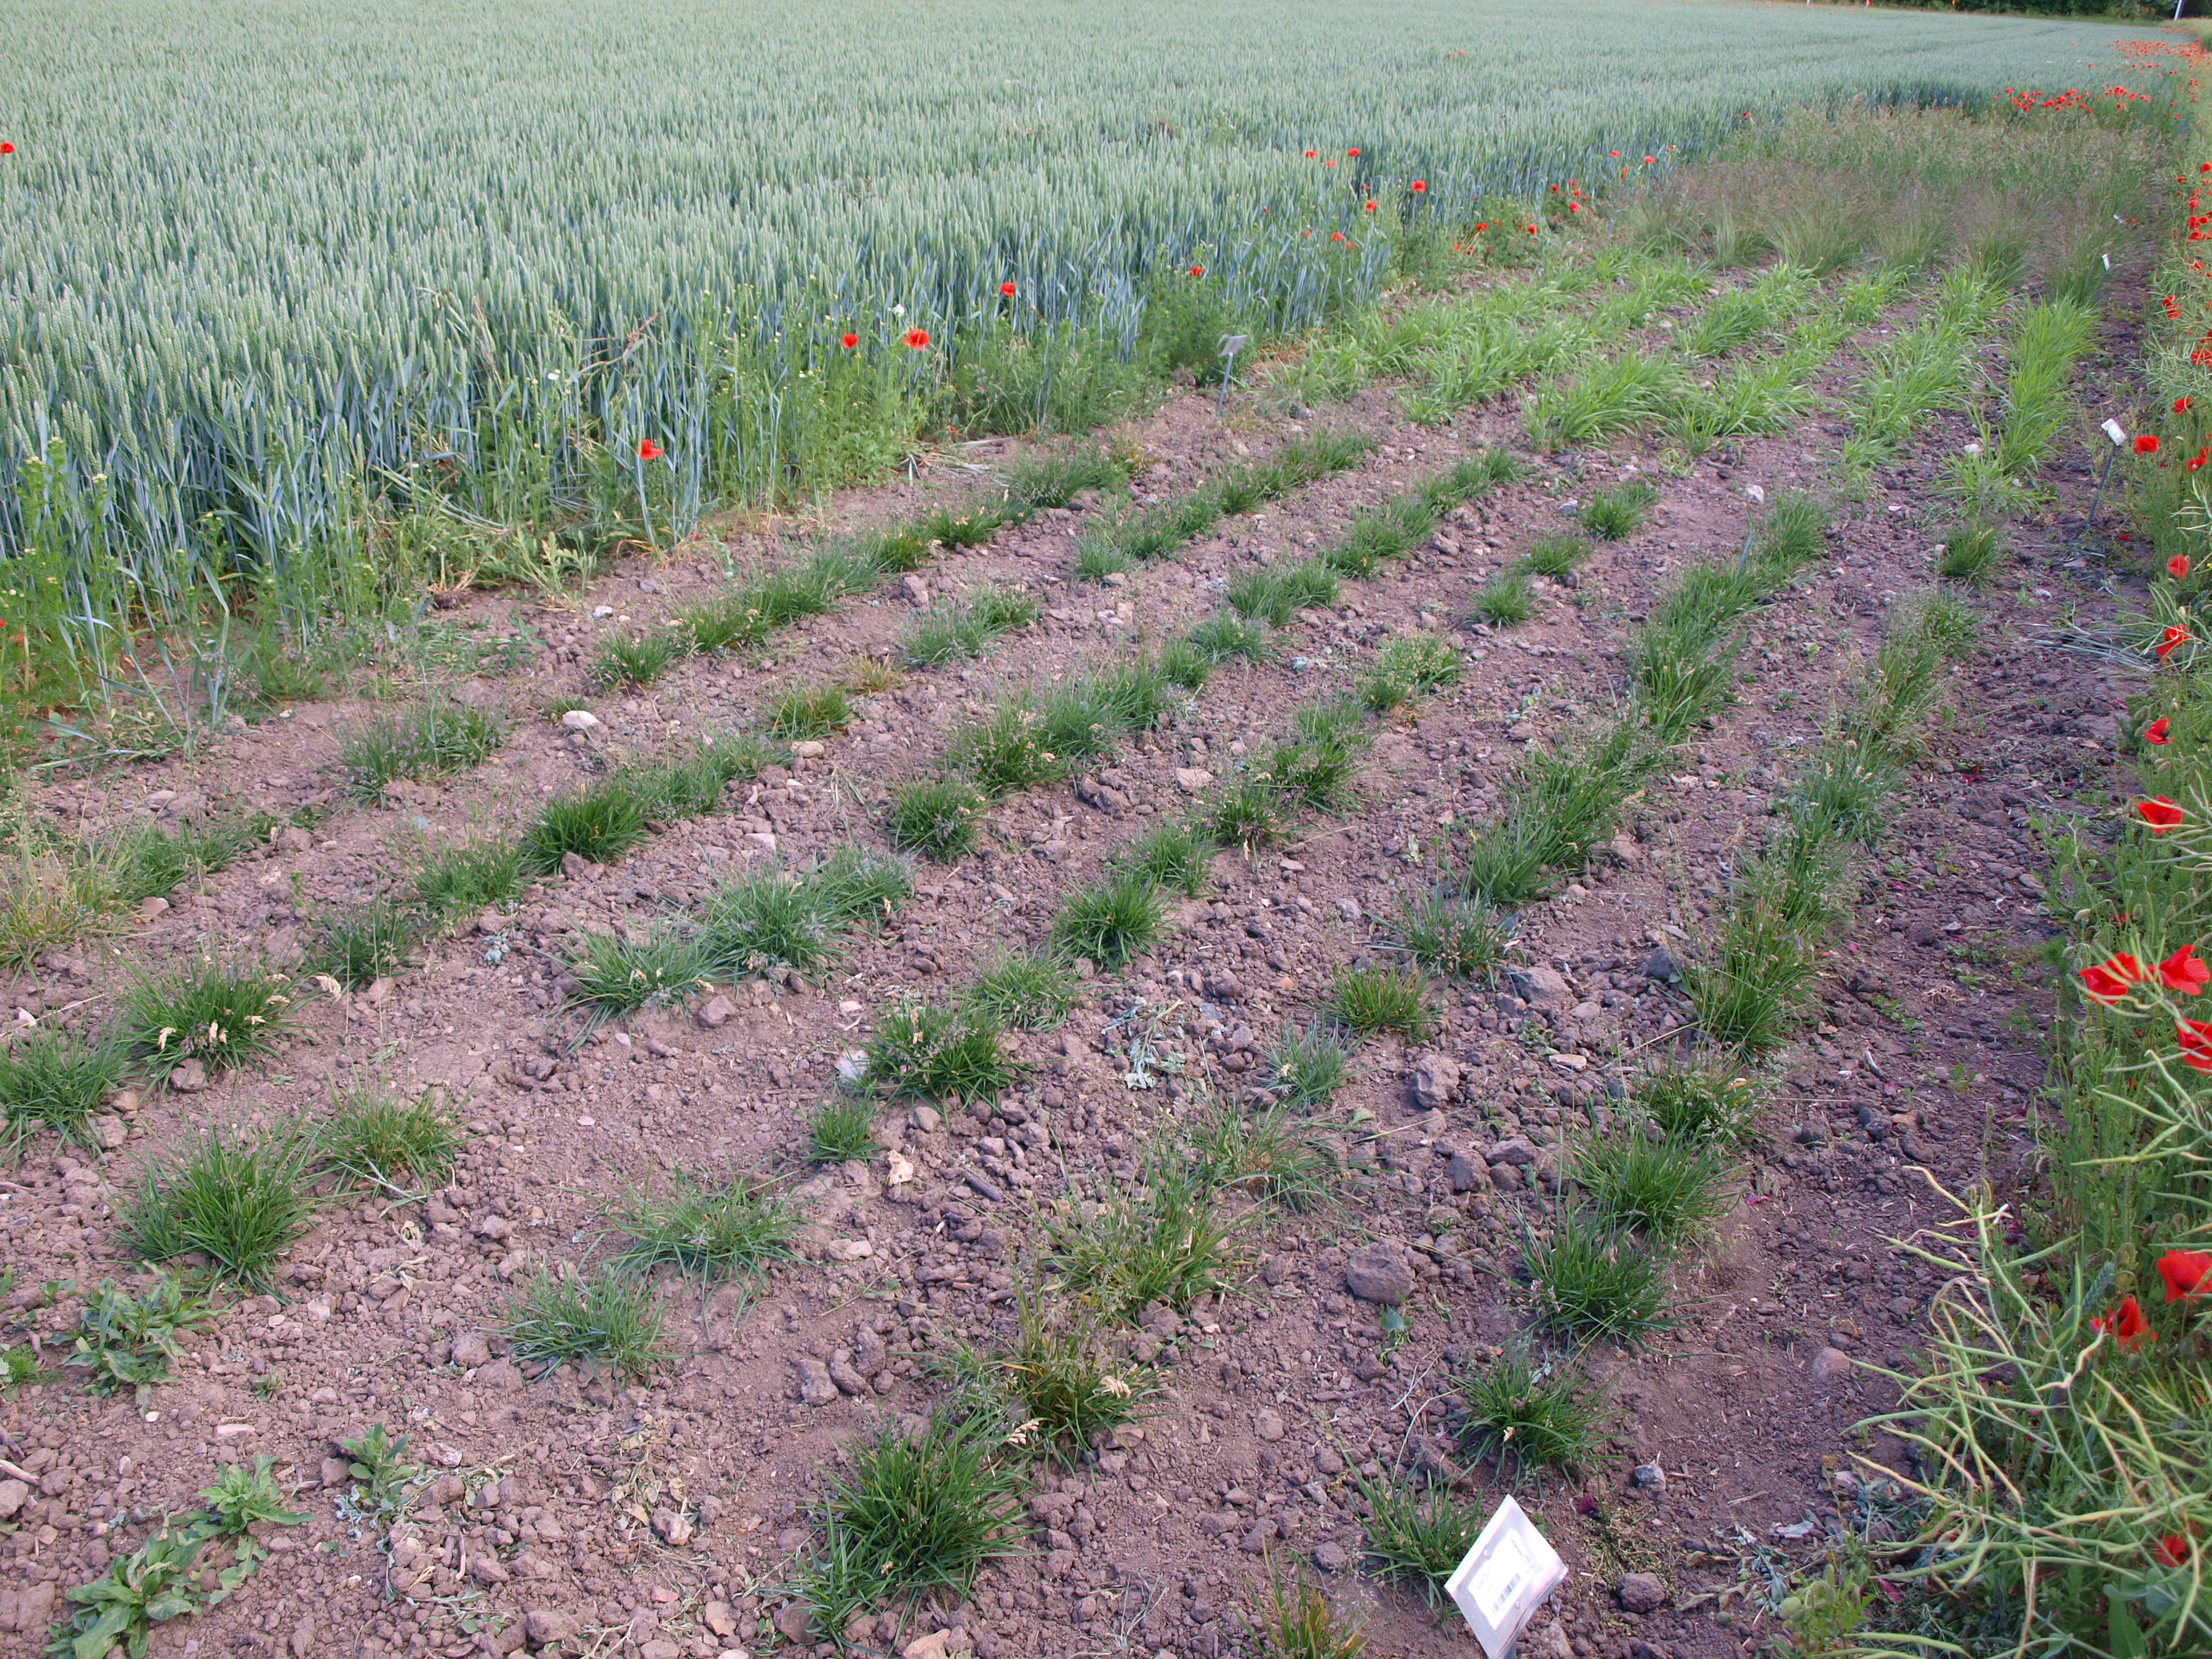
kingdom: Plantae
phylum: Tracheophyta
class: Liliopsida
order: Poales
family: Poaceae
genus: Poa
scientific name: Poa pratensis
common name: Kentucky bluegrass
